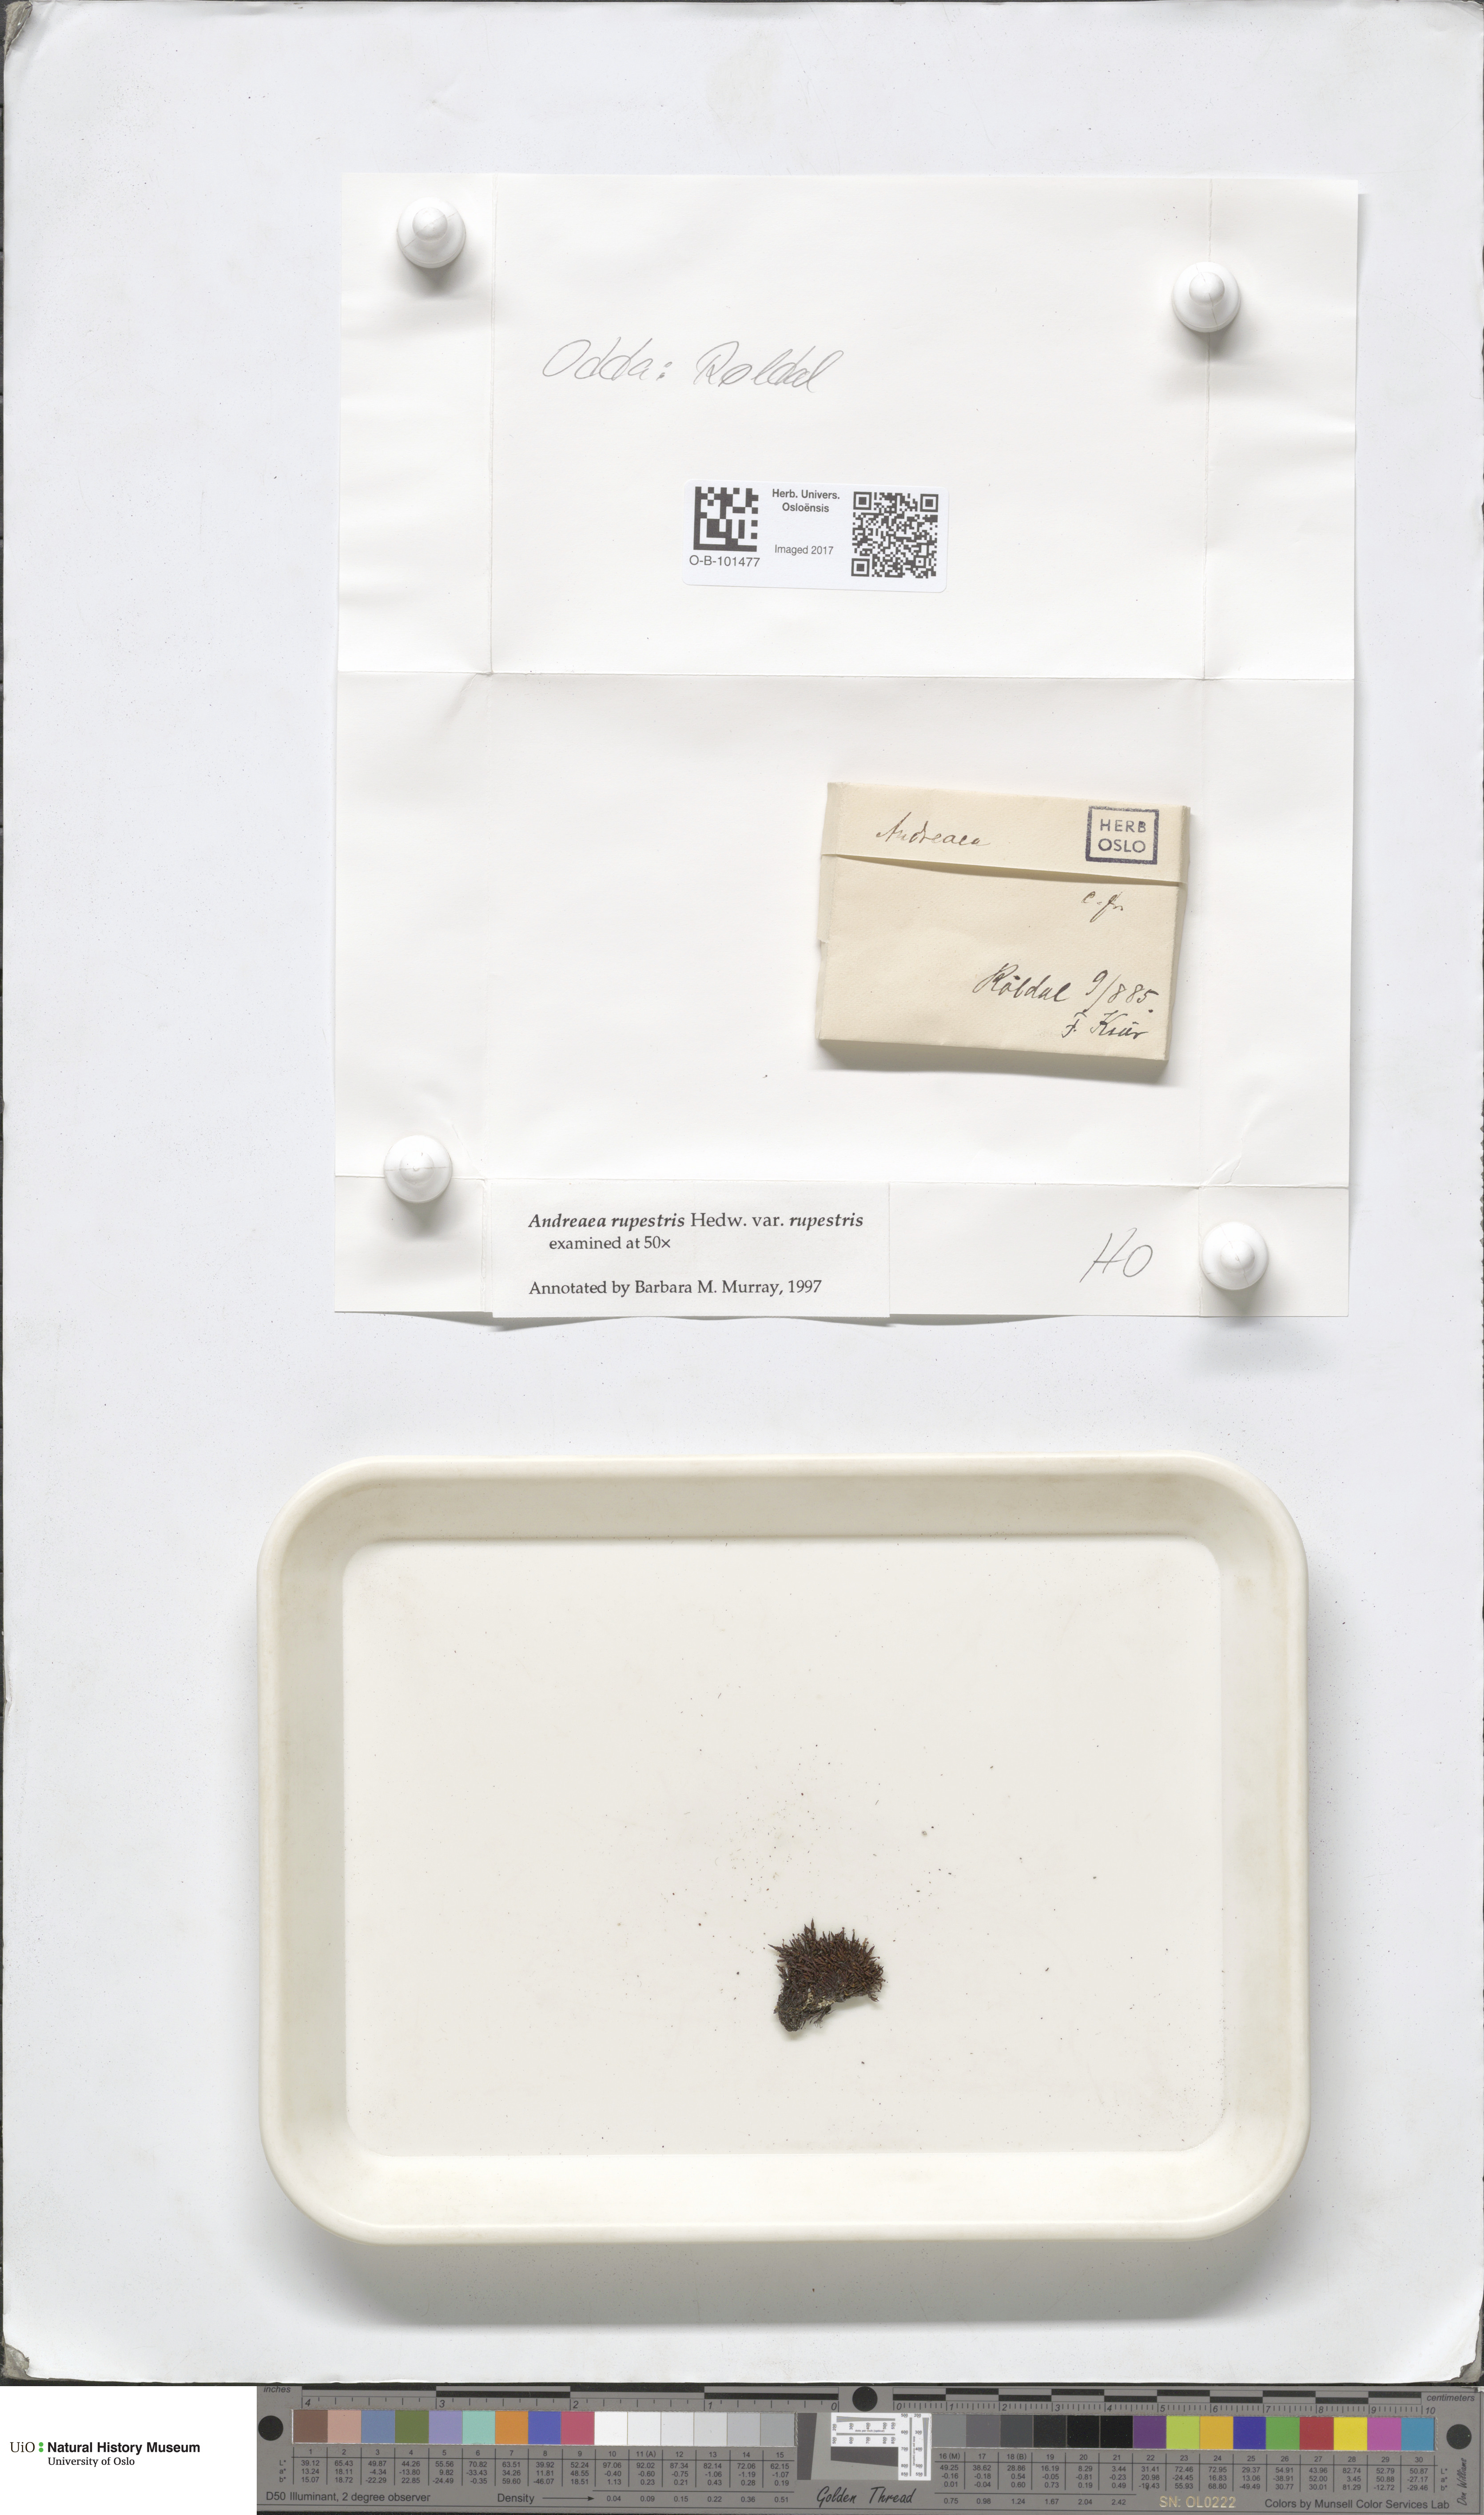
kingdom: Plantae
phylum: Bryophyta
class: Andreaeopsida
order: Andreaeales
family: Andreaeaceae
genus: Andreaea
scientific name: Andreaea rupestris
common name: Black rock moss
